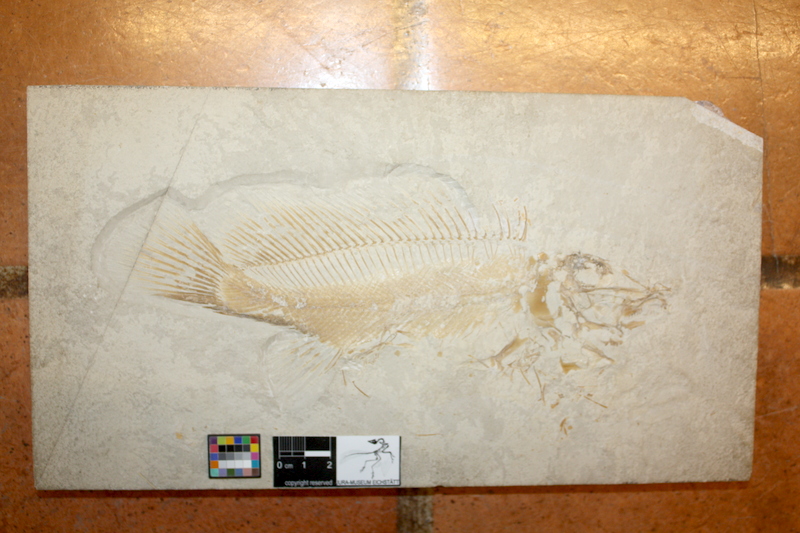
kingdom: Animalia
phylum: Chordata
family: Macrosemiidae
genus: Macrosemius
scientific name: Macrosemius rostratus
